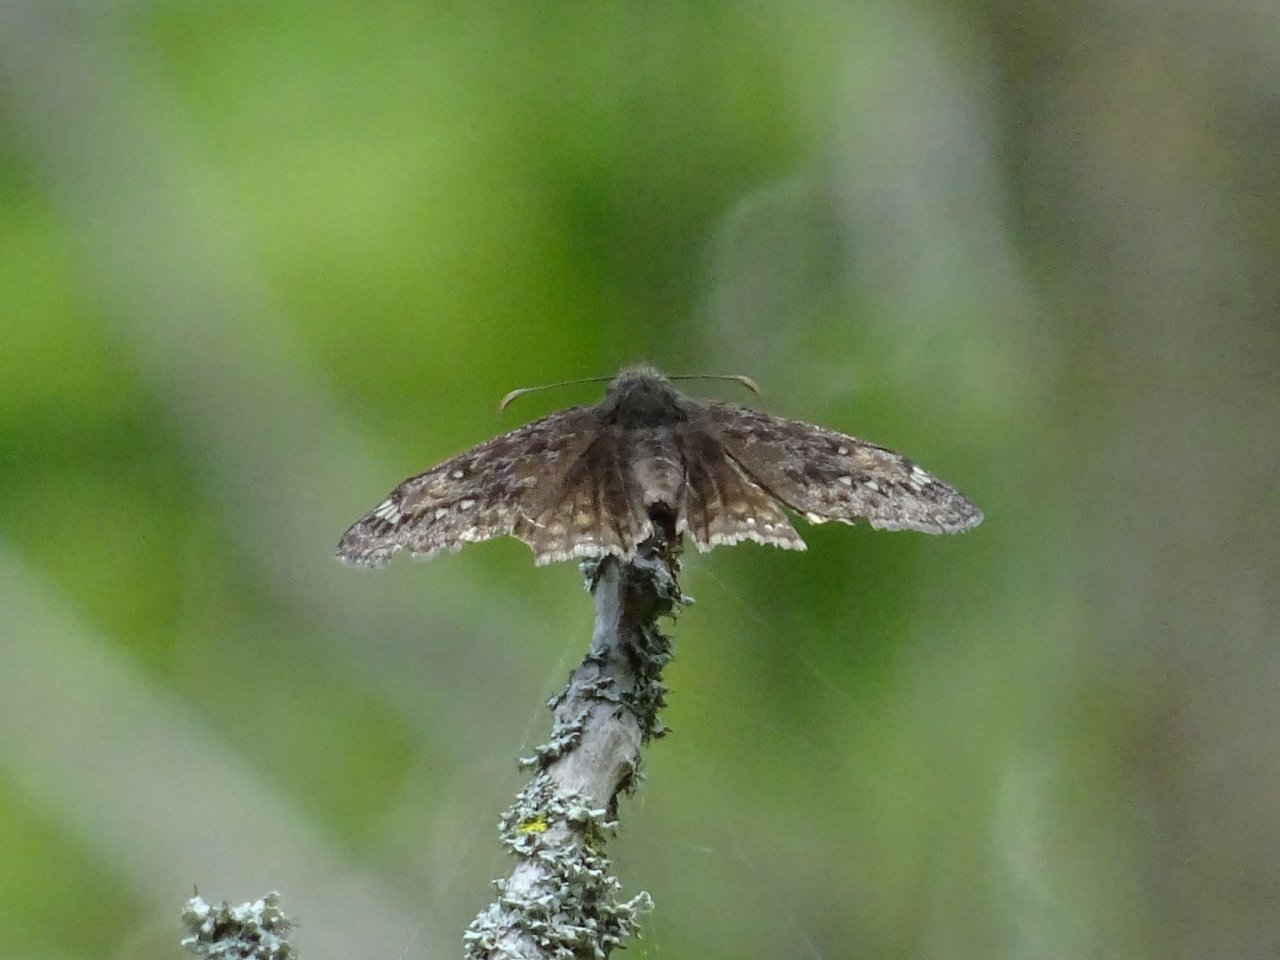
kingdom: Animalia
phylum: Arthropoda
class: Insecta
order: Lepidoptera
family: Hesperiidae
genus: Gesta
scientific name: Gesta
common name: Juvenal's Duskywing
